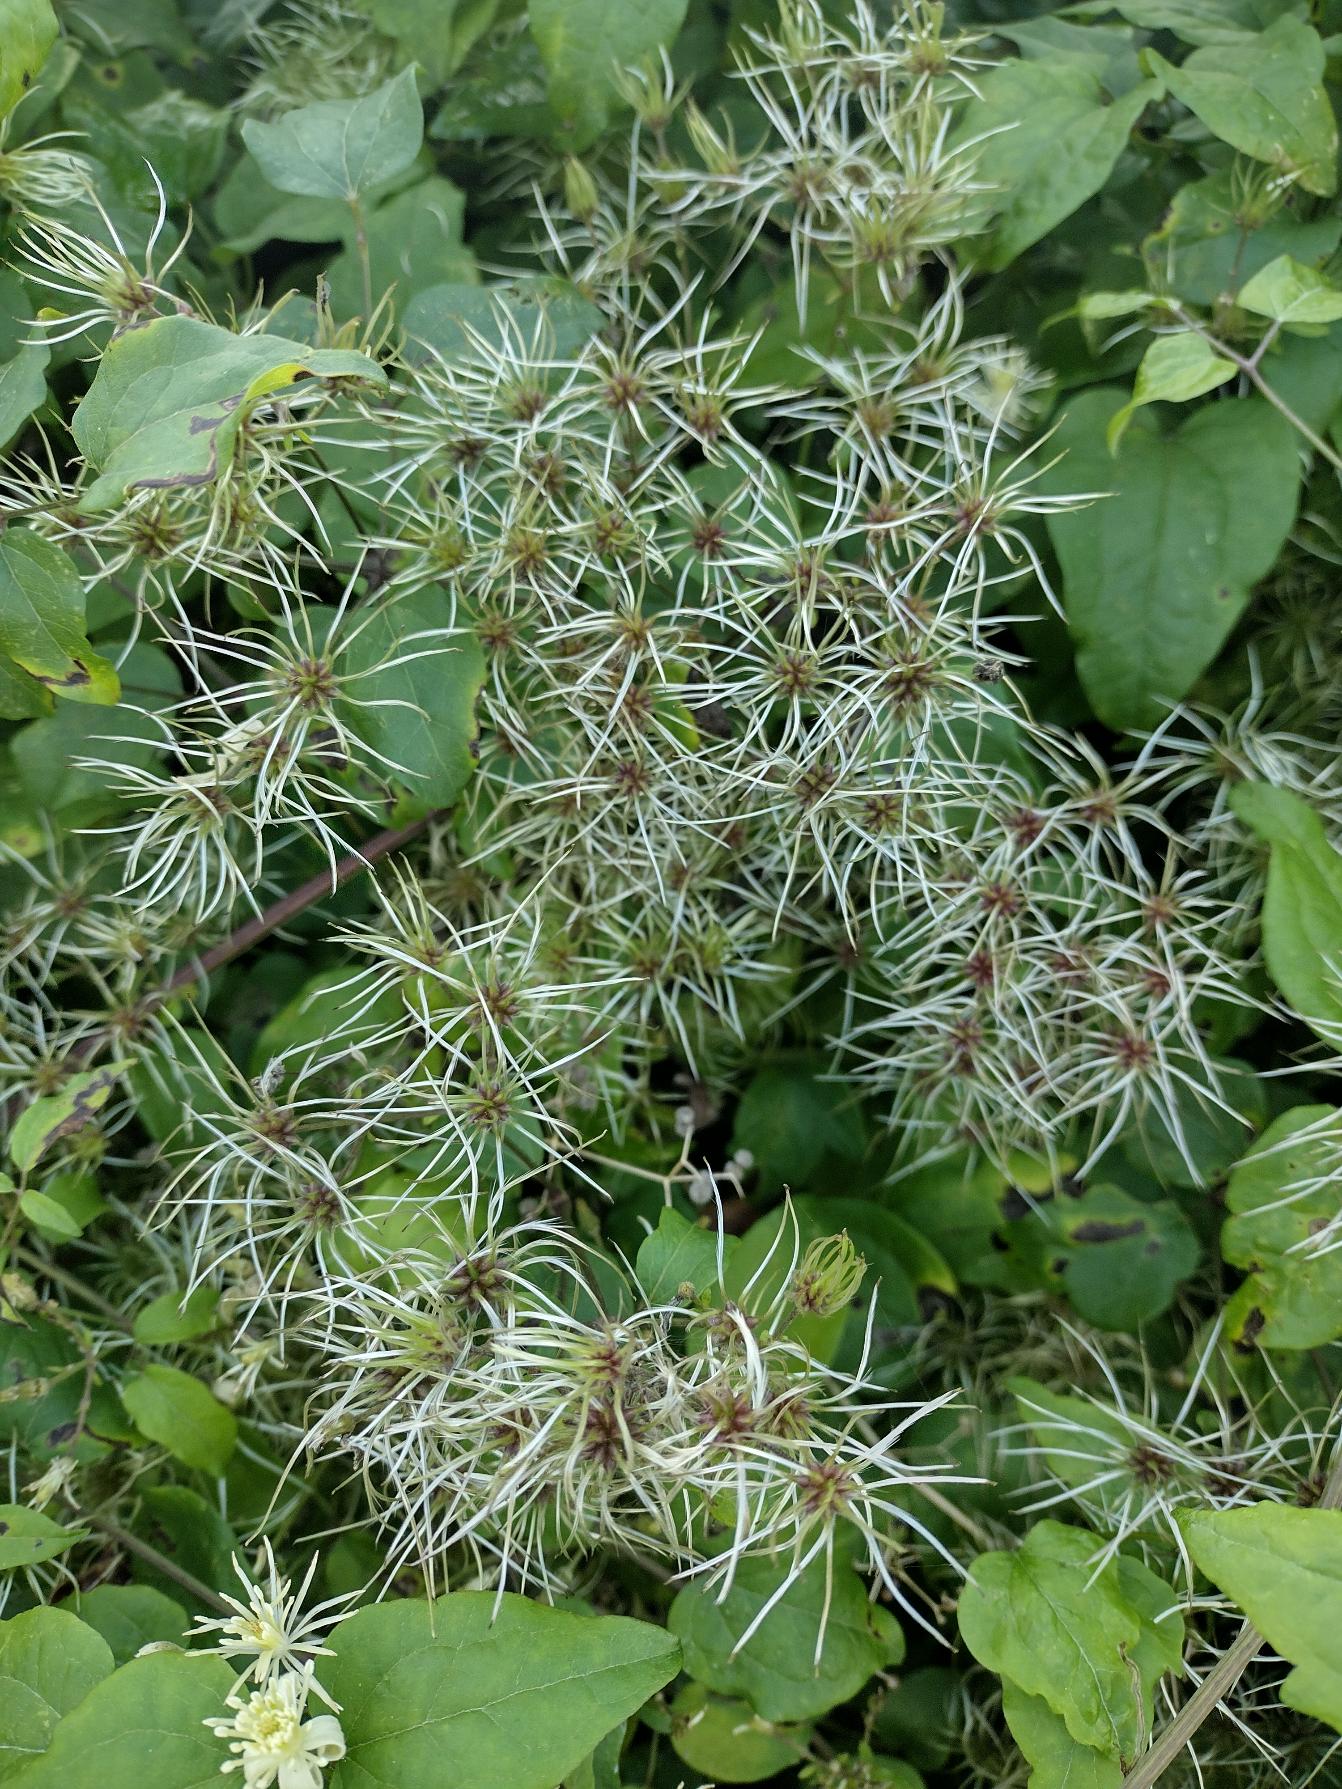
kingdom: Plantae
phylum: Tracheophyta
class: Magnoliopsida
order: Ranunculales
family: Ranunculaceae
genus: Clematis
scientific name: Clematis vitalba
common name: Skovranke
